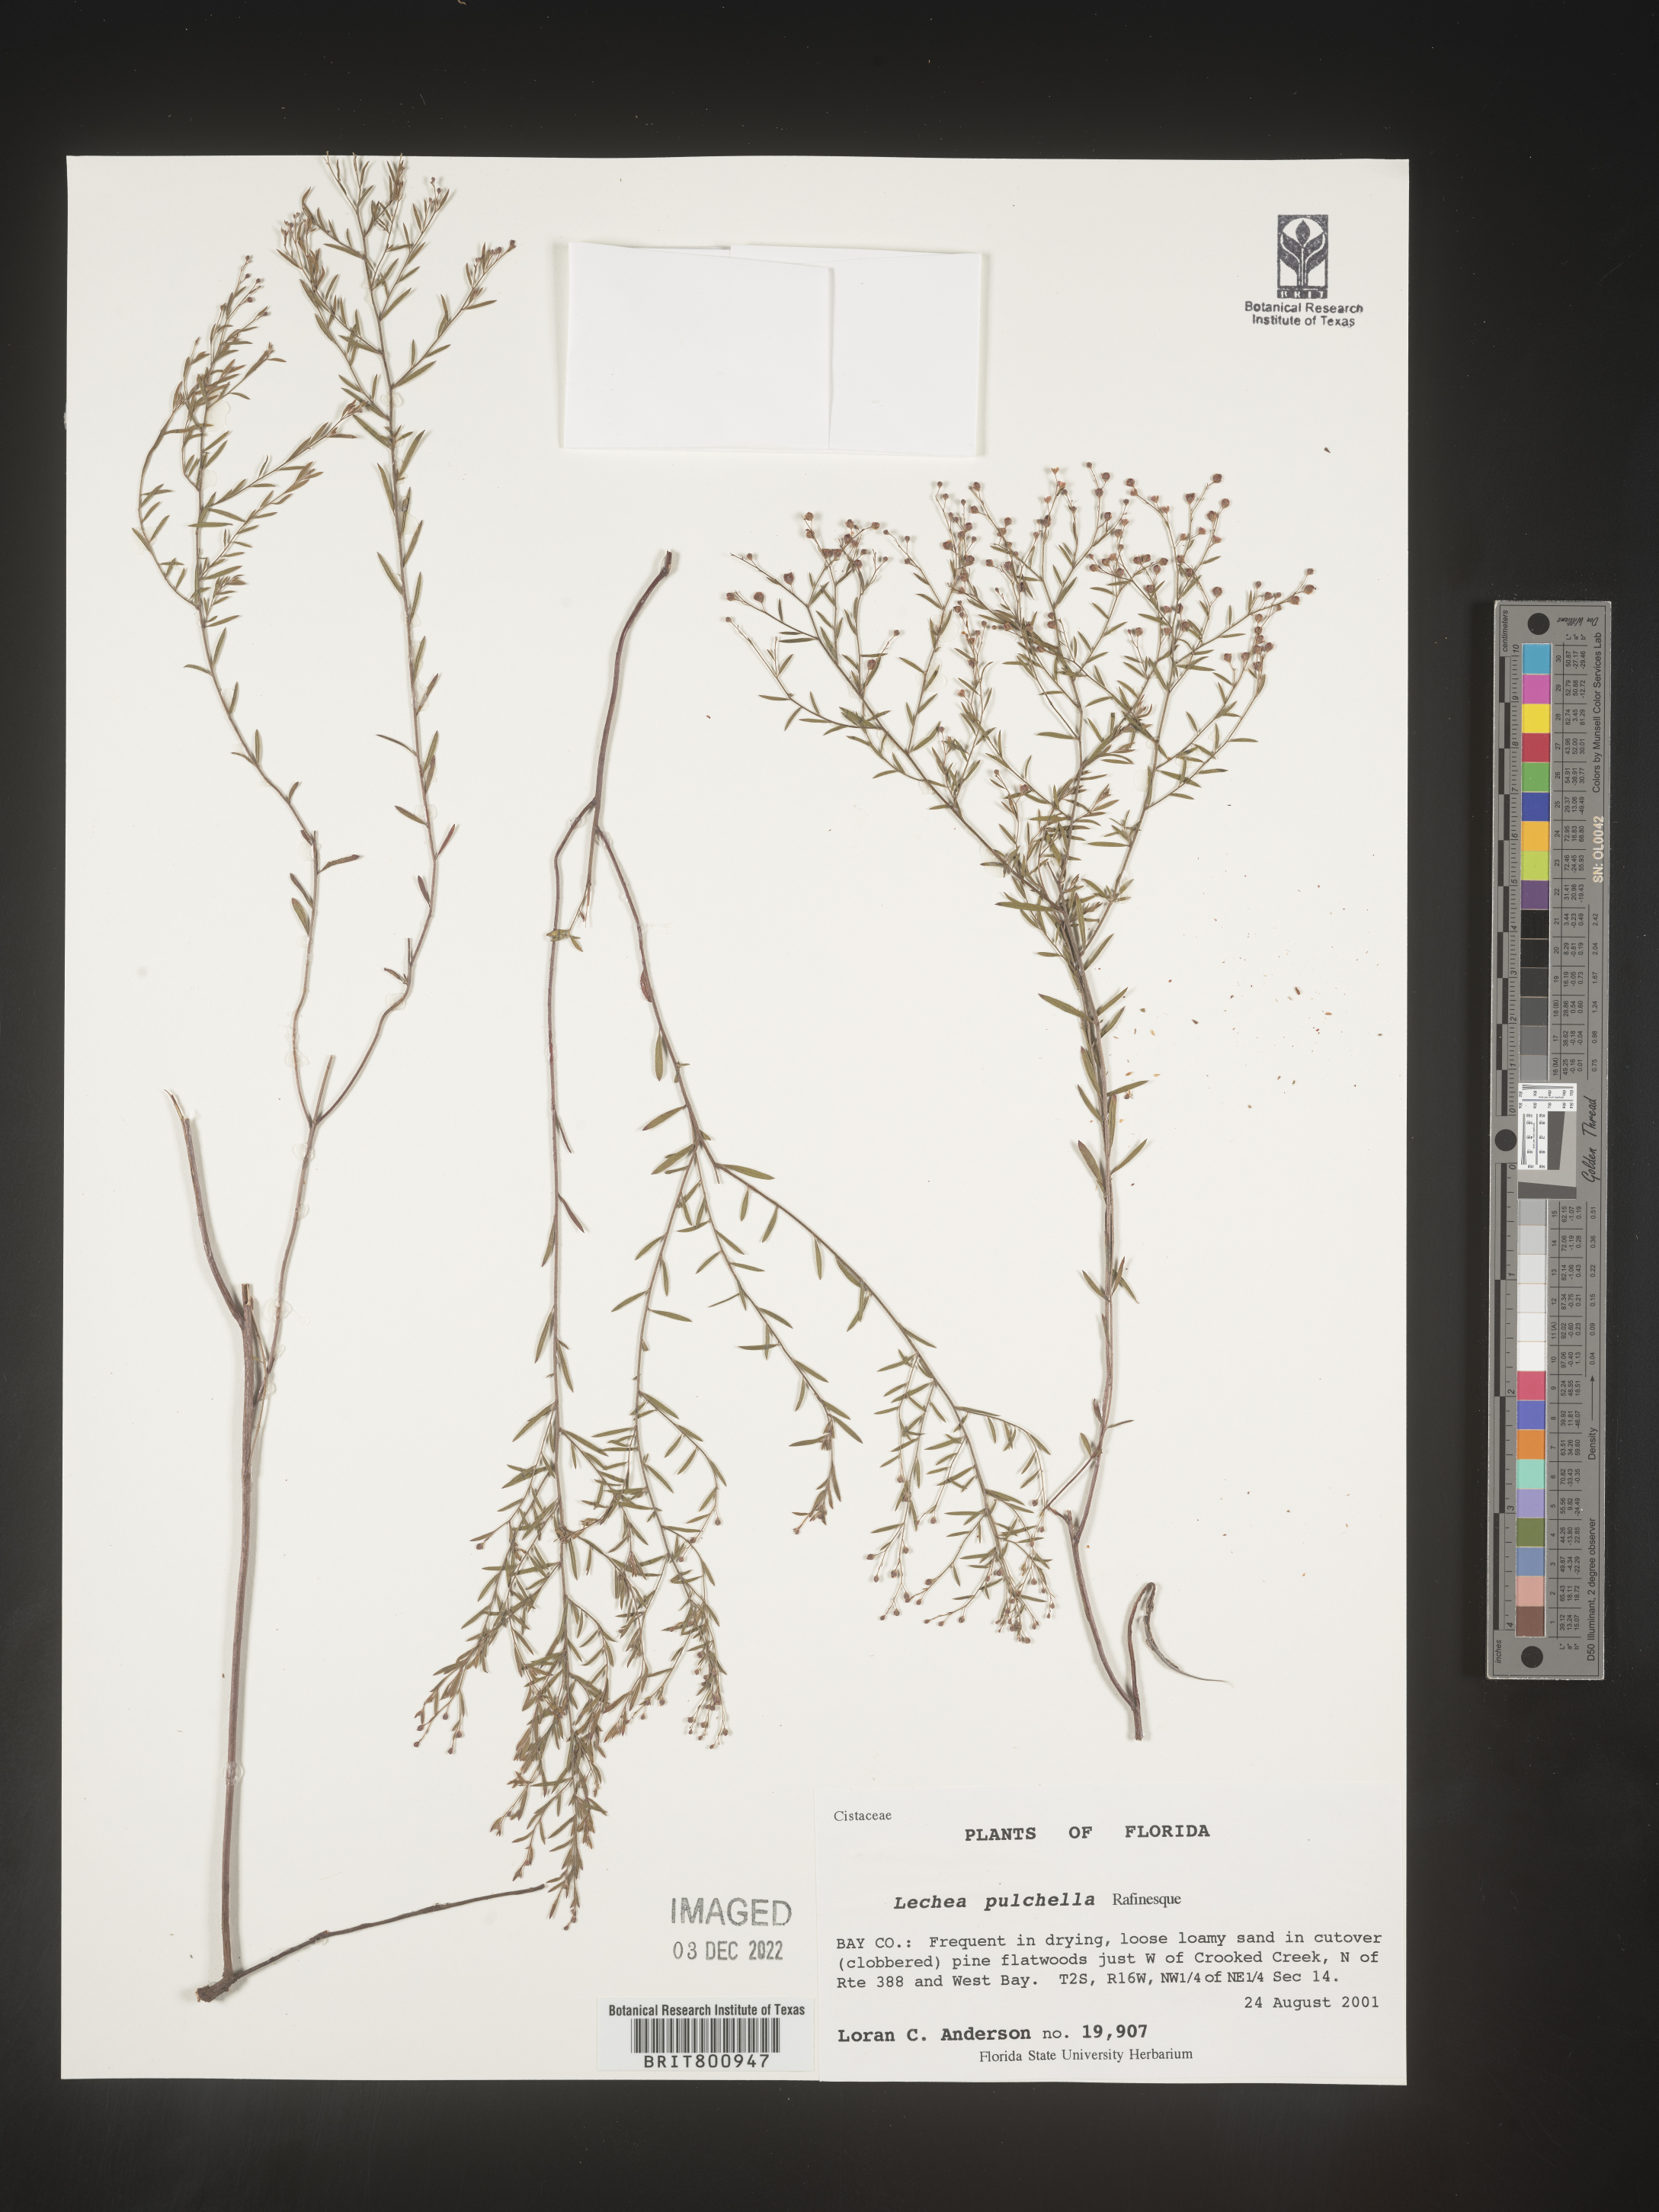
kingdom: Plantae
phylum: Tracheophyta
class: Magnoliopsida
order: Malvales
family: Cistaceae
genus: Lechea
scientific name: Lechea pulchella
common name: Leggett's pinweed
